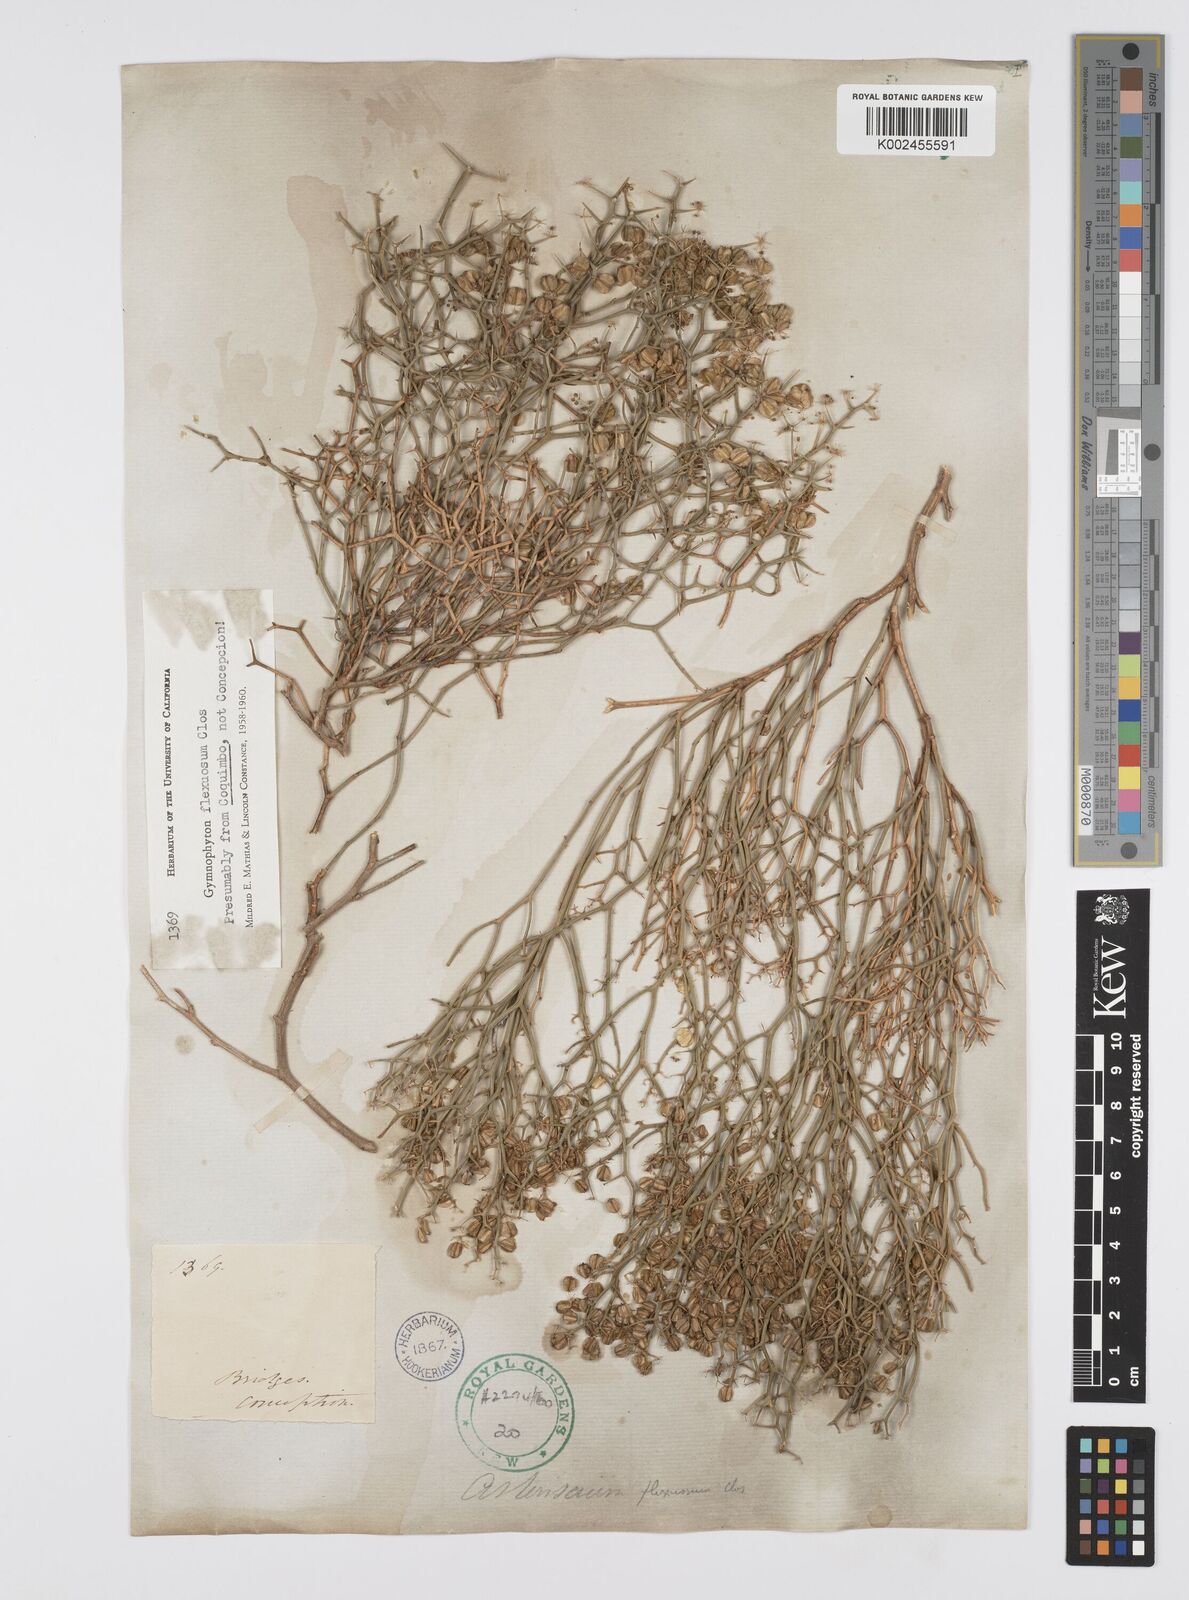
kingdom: Plantae
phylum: Tracheophyta
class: Magnoliopsida
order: Apiales
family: Apiaceae
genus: Gymnophyton
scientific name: Gymnophyton flexuosum
